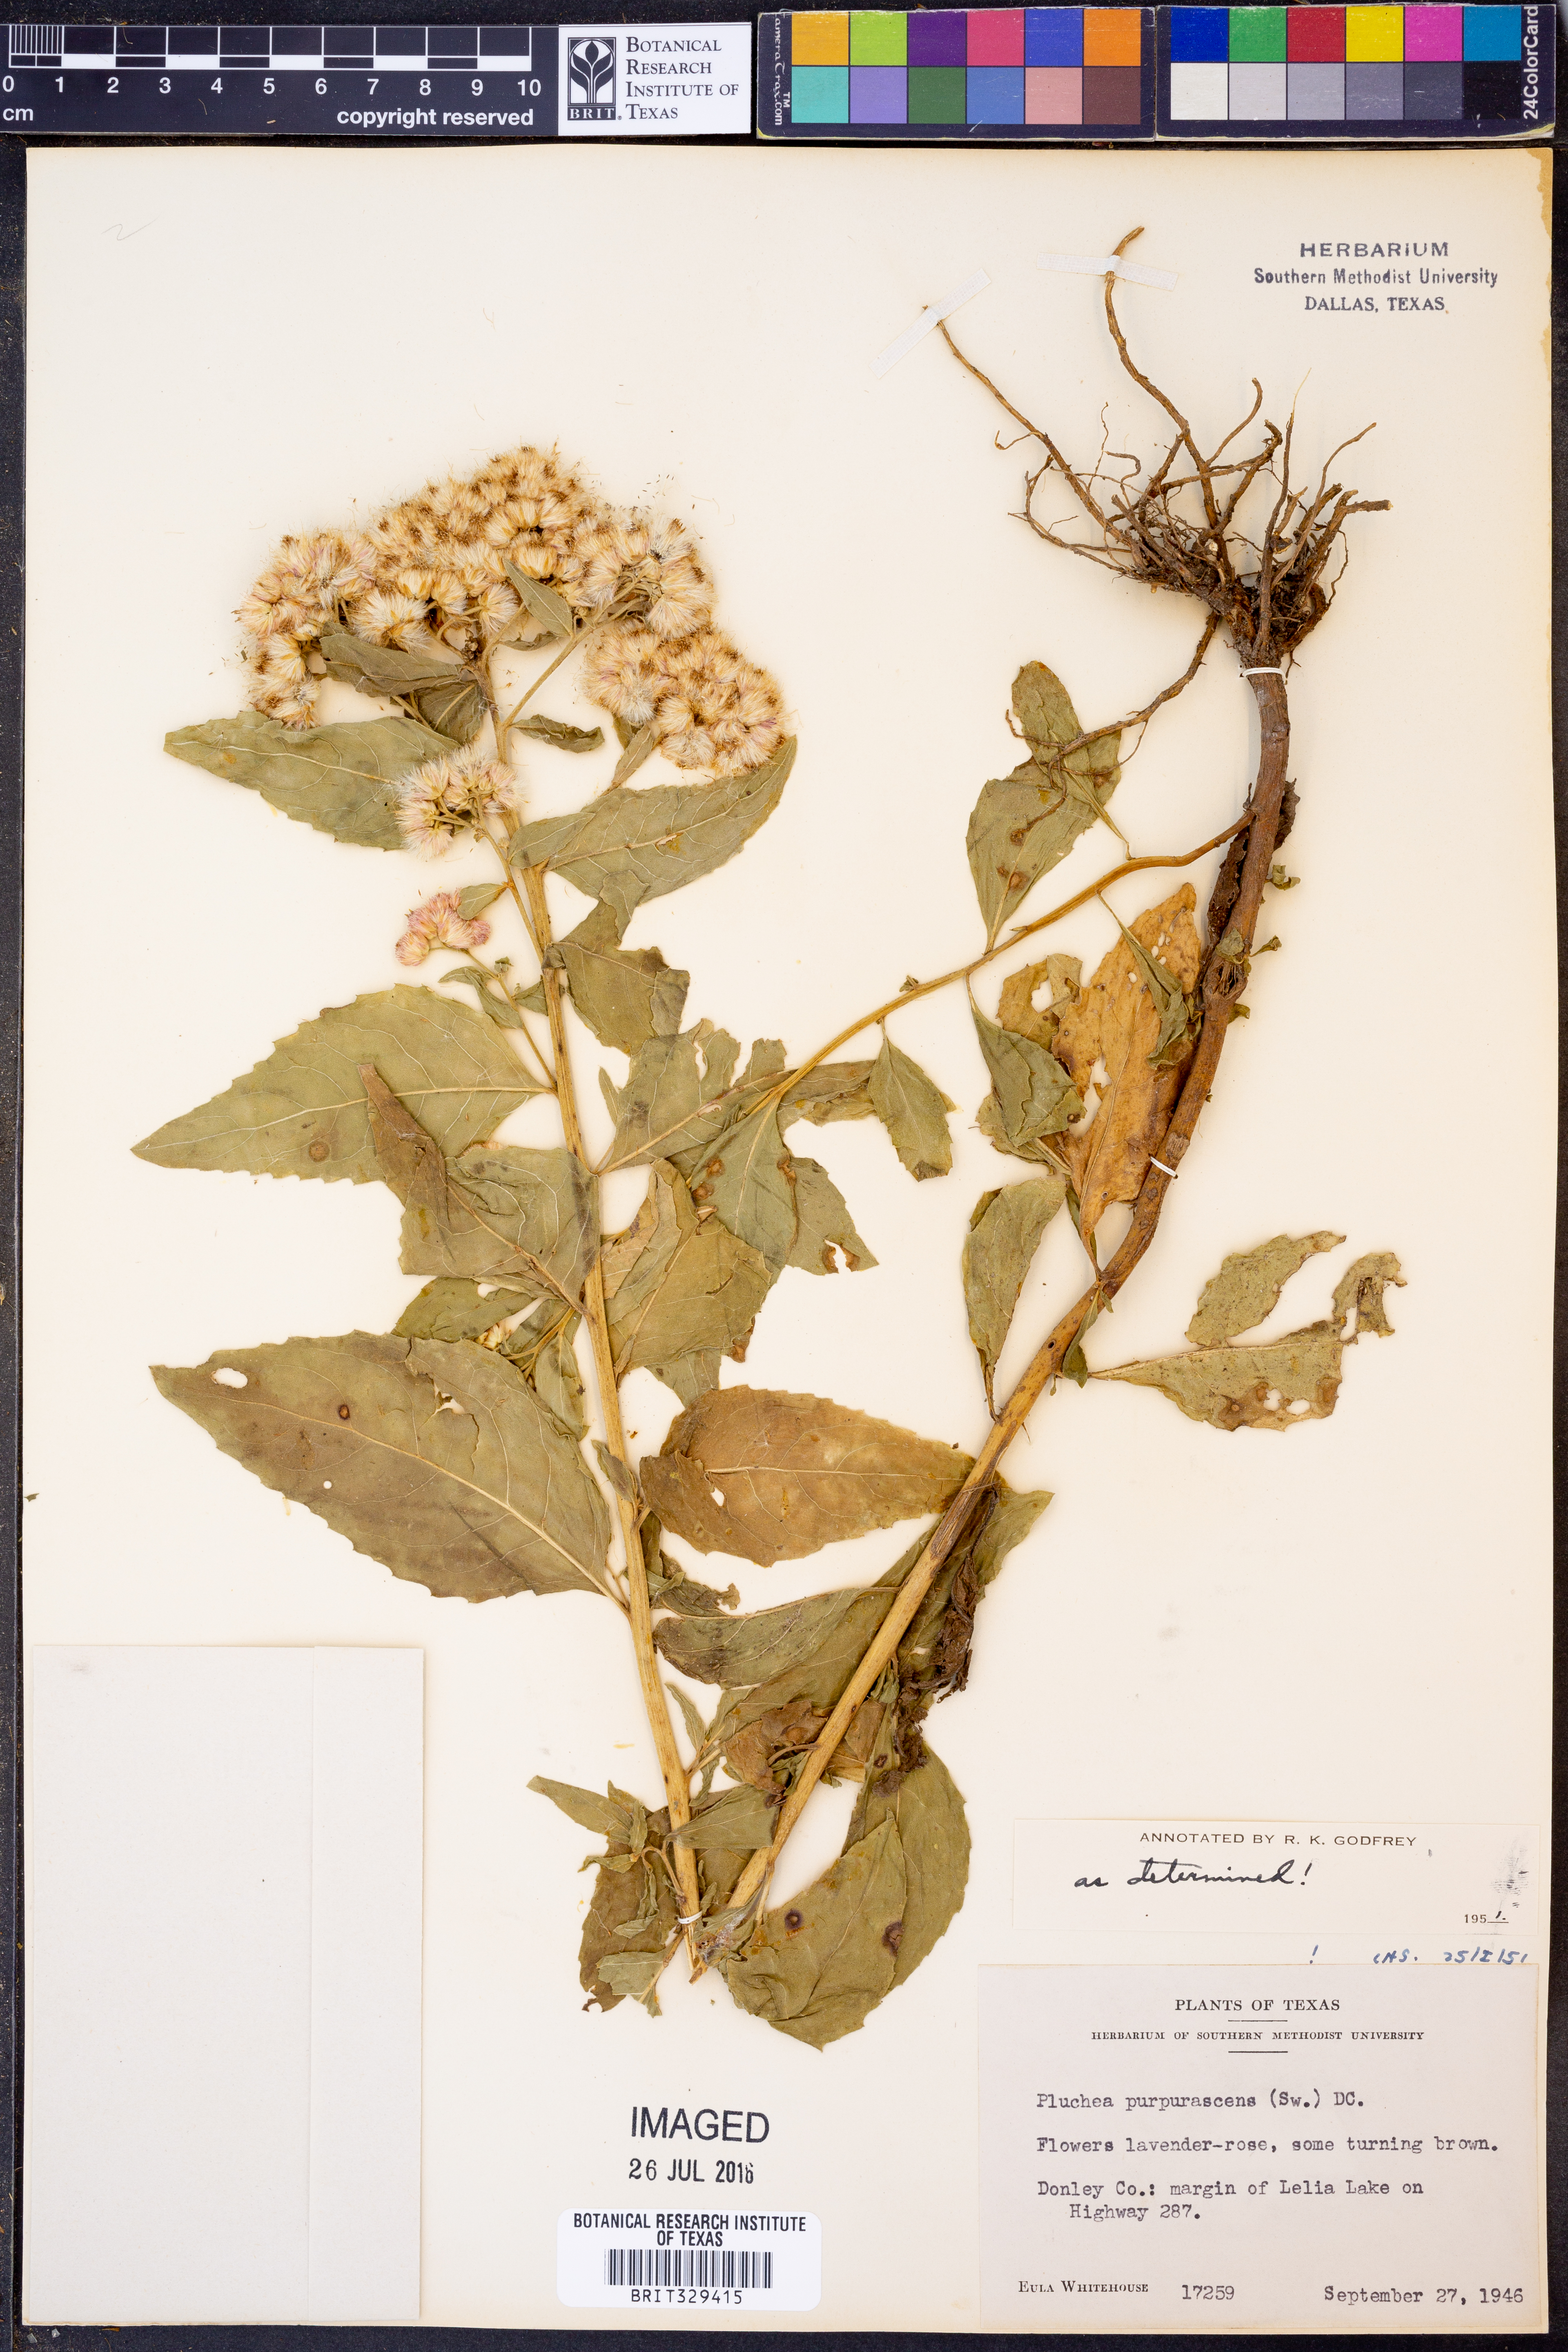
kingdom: Plantae
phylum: Tracheophyta
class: Magnoliopsida
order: Asterales
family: Asteraceae
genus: Pluchea
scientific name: Pluchea odorata
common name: Saltmarsh fleabane
